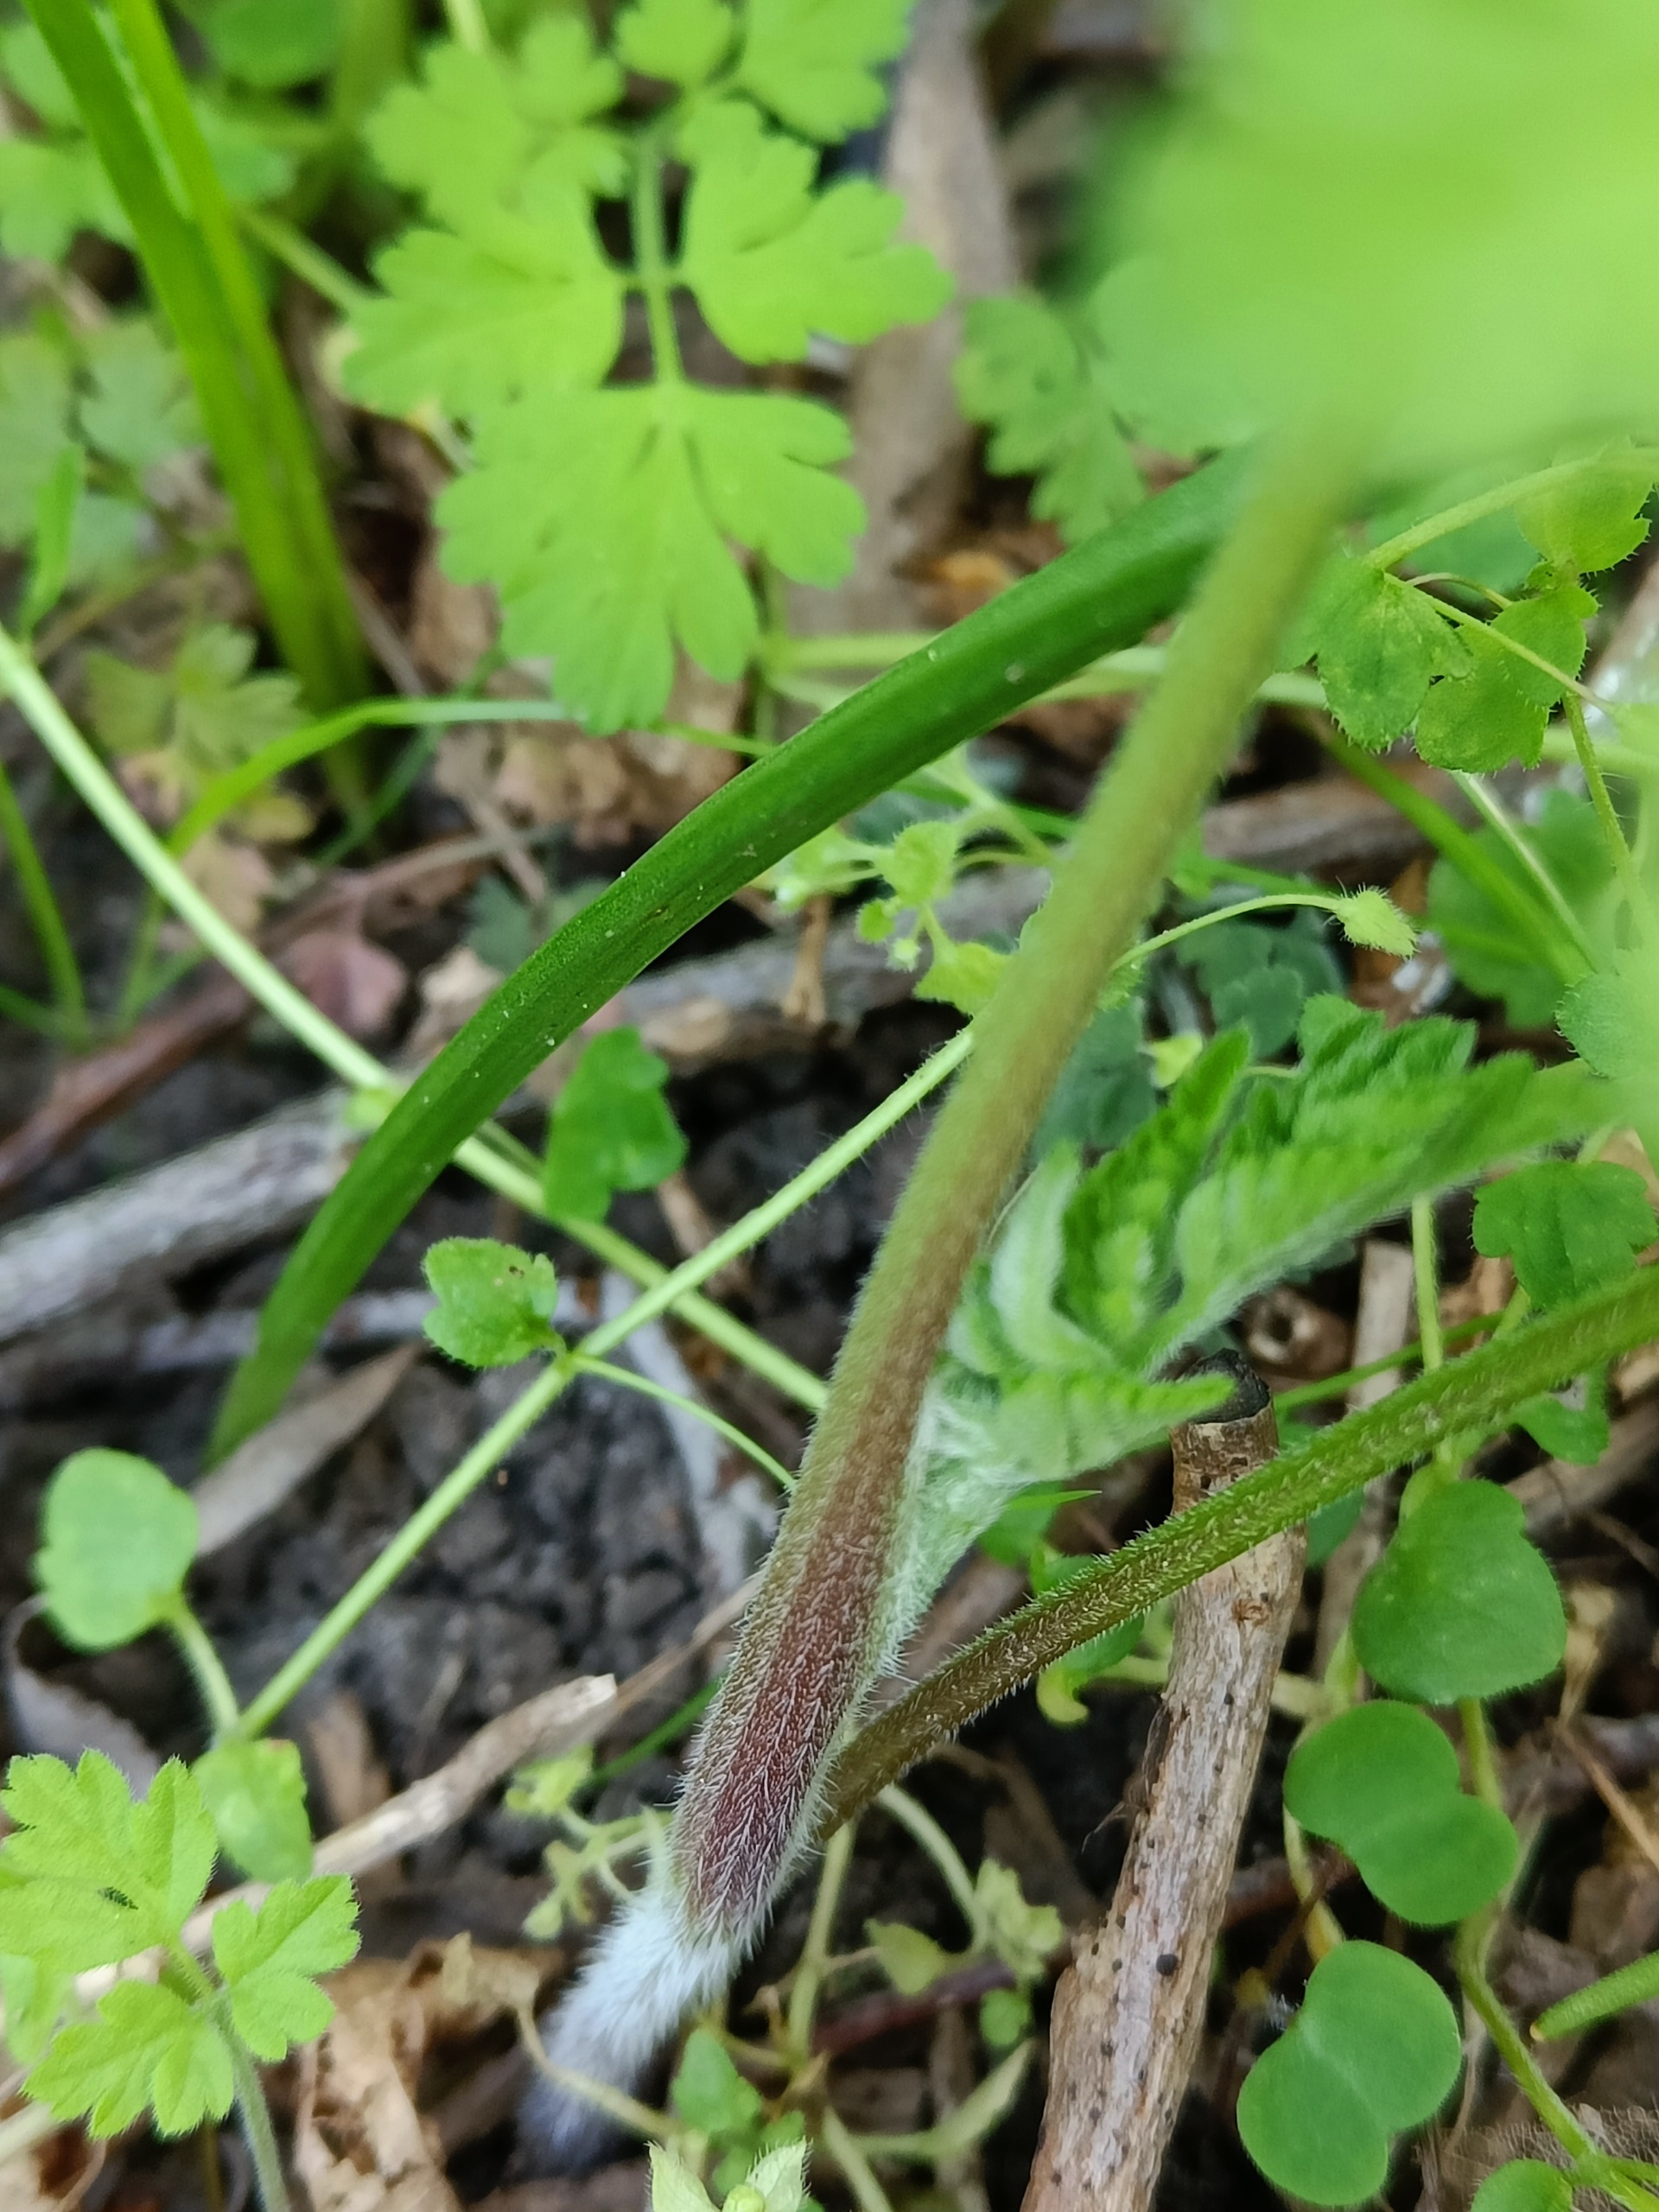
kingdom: Plantae
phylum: Tracheophyta
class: Magnoliopsida
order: Apiales
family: Apiaceae
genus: Chaerophyllum
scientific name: Chaerophyllum temulum
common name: Almindelig hulsvøb
